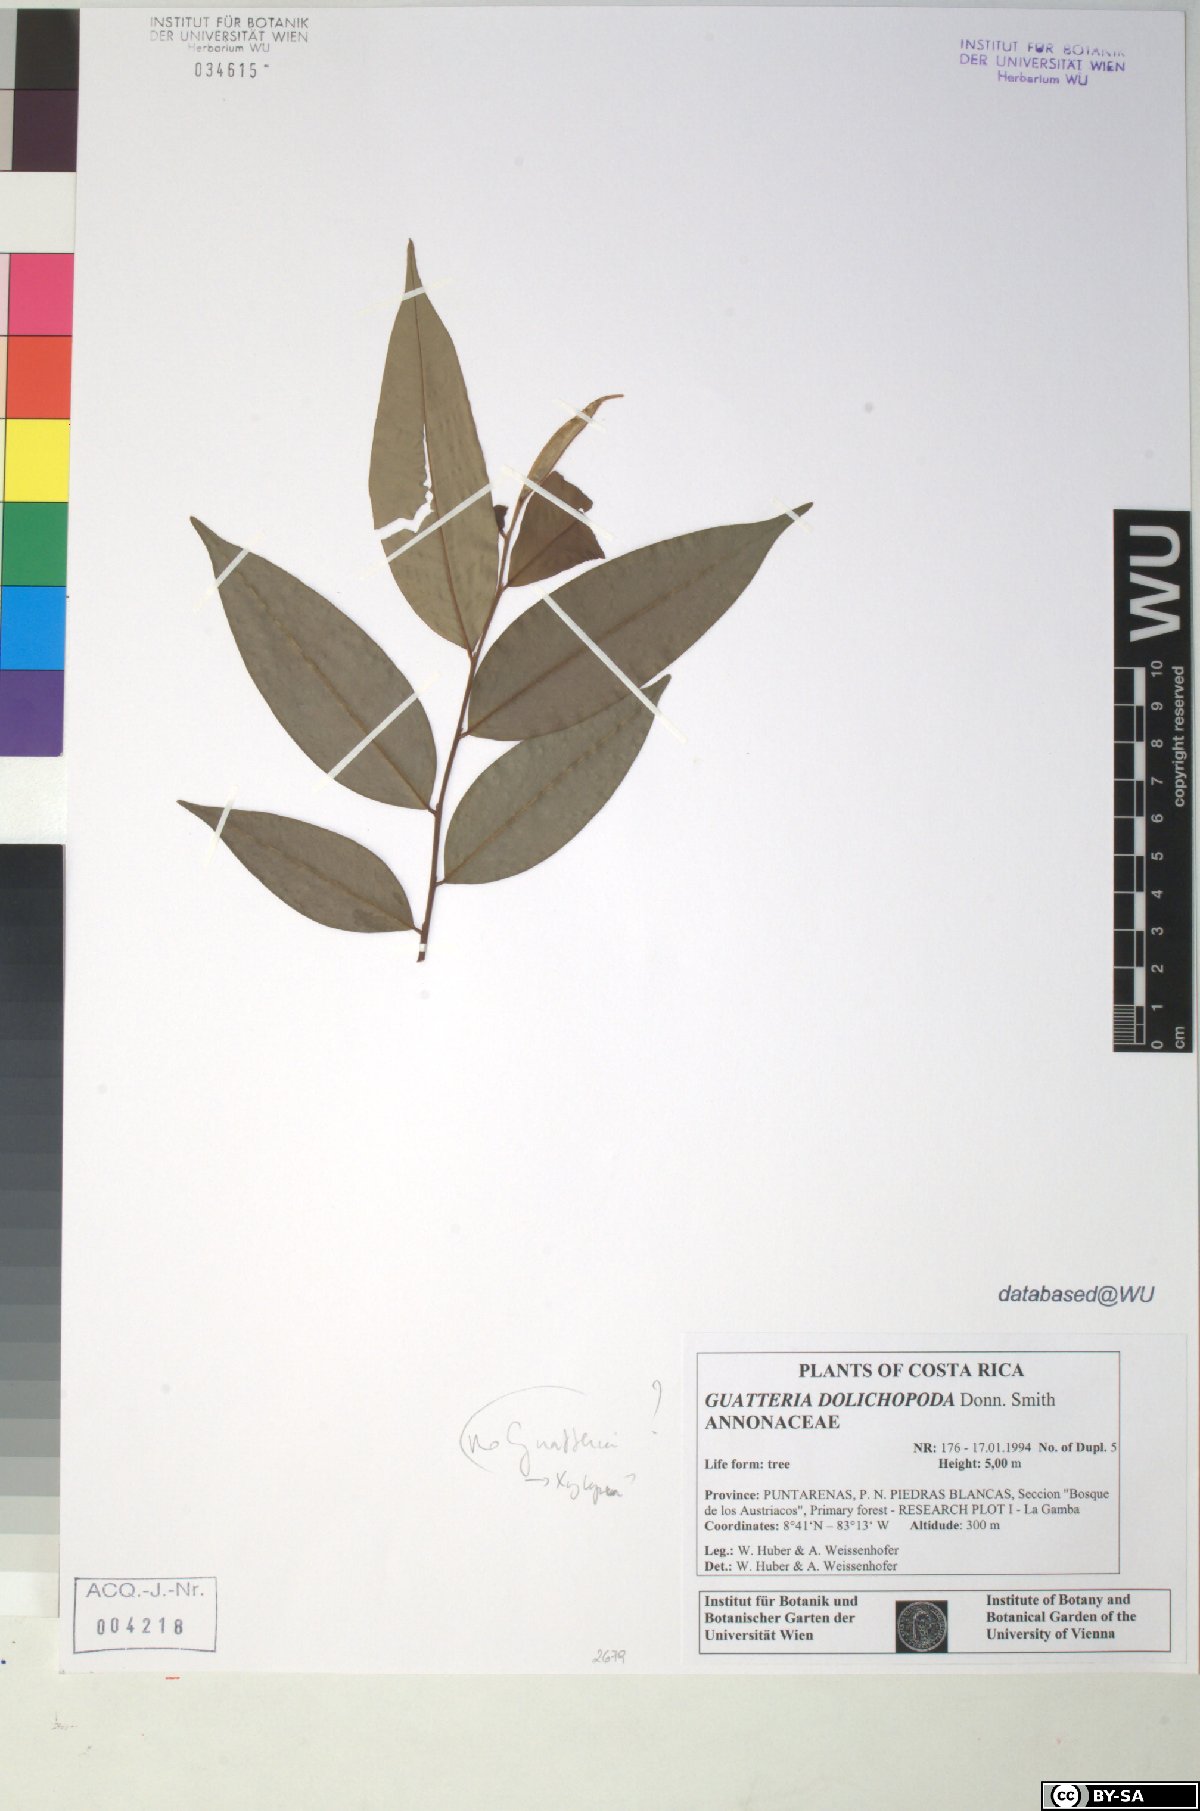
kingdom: Plantae
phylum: Tracheophyta
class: Magnoliopsida
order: Magnoliales
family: Annonaceae
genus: Xylopia
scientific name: Xylopia
